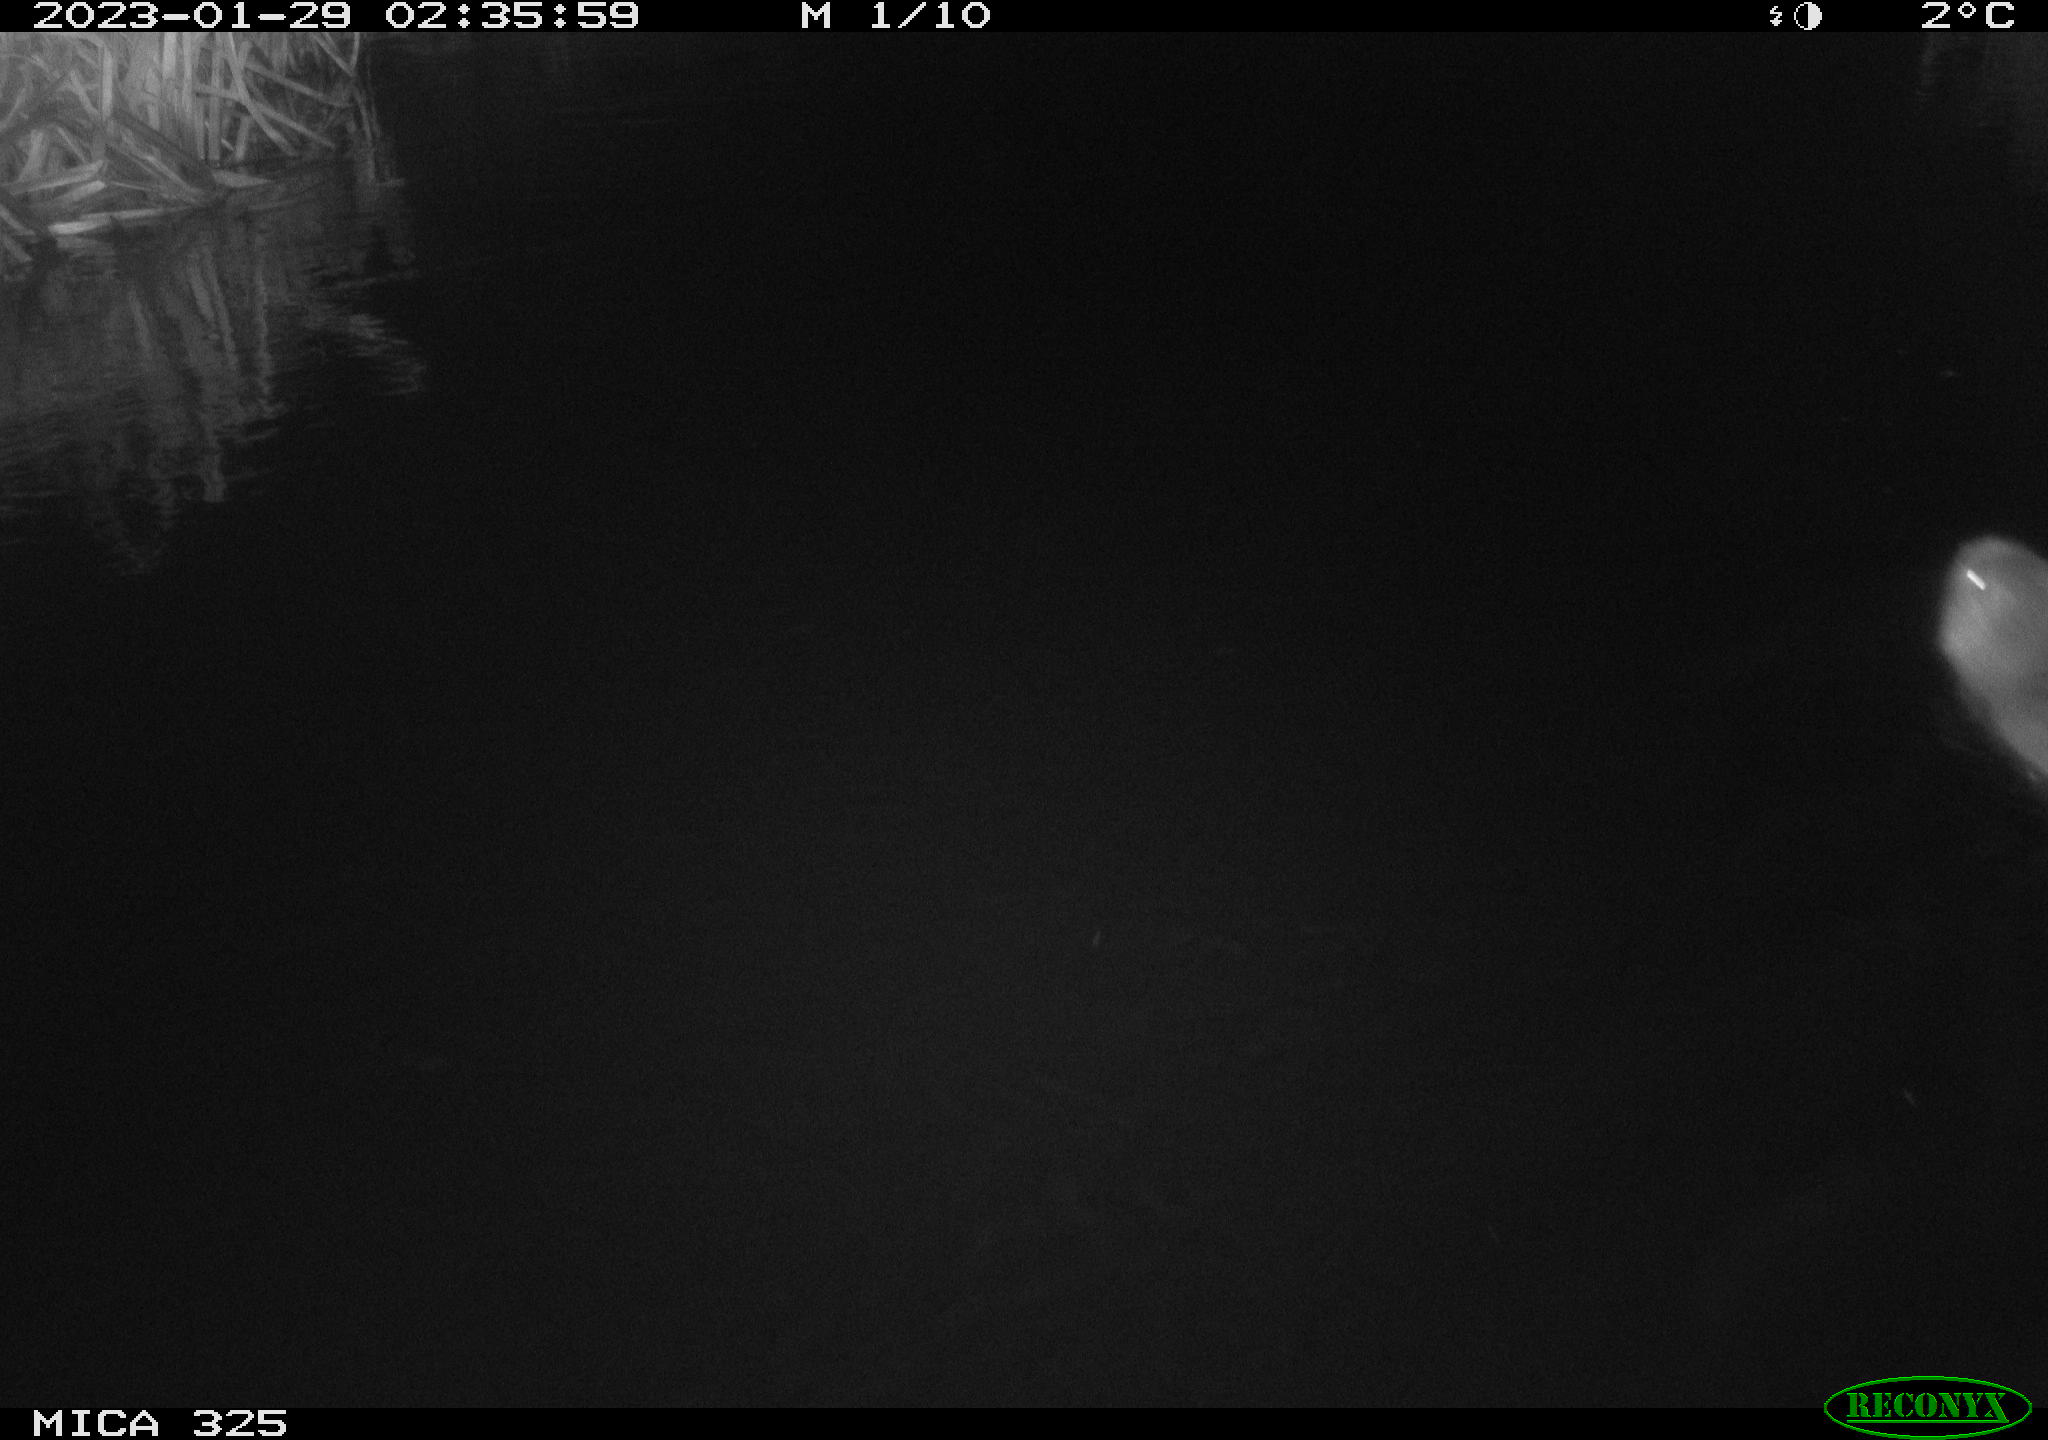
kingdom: Animalia
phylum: Chordata
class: Mammalia
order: Rodentia
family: Cricetidae
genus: Ondatra
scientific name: Ondatra zibethicus
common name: Muskrat
